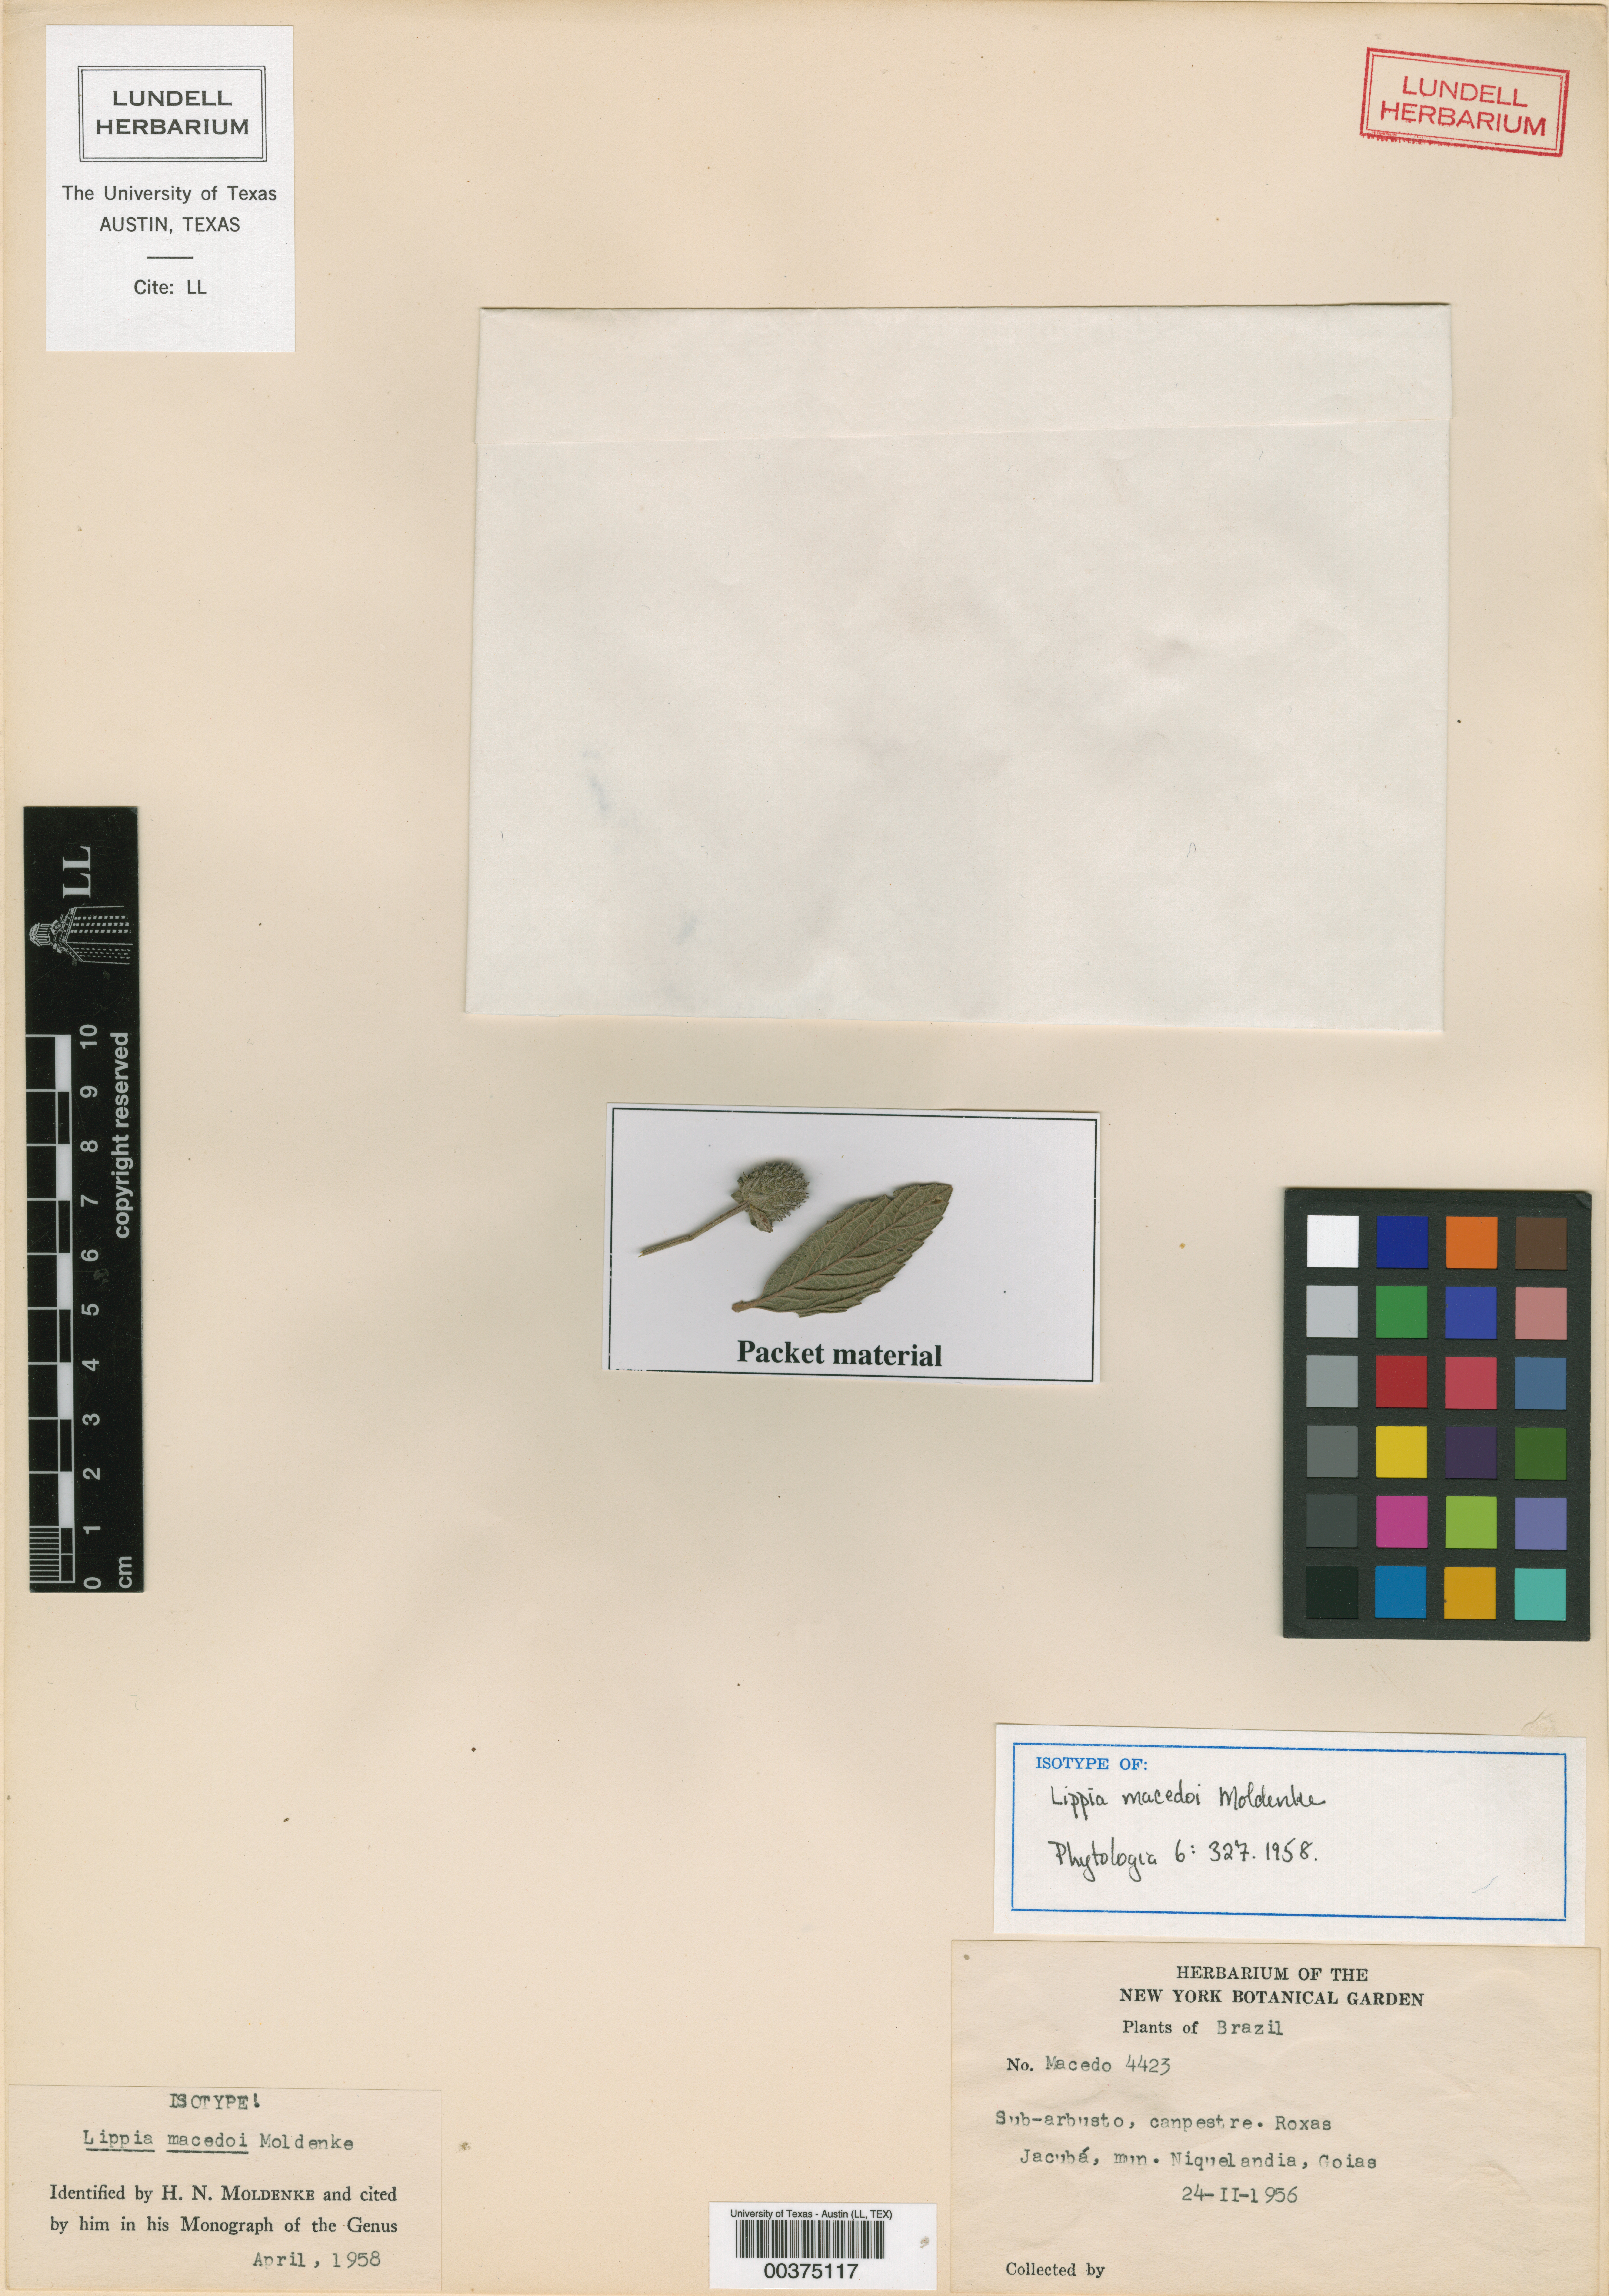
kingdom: Plantae
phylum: Tracheophyta
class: Magnoliopsida
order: Lamiales
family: Verbenaceae
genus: Lippia
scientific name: Lippia macedoi
